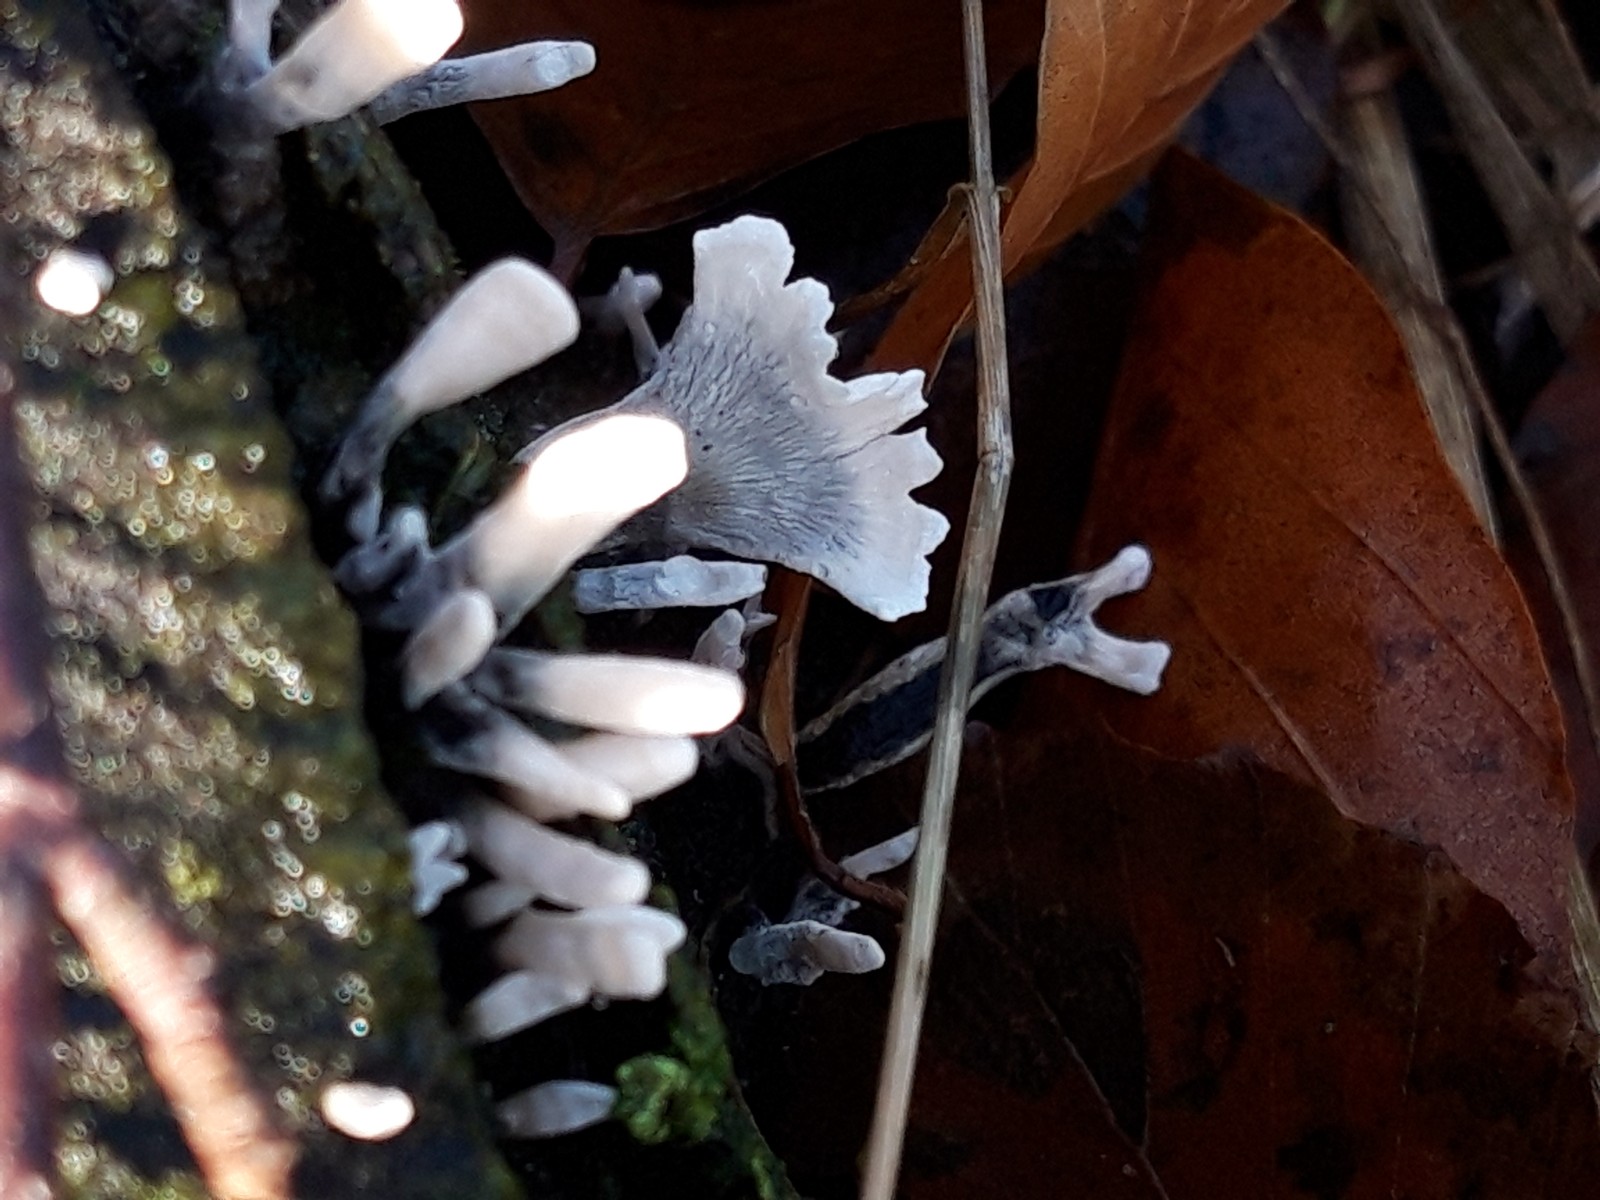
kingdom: Fungi
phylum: Ascomycota
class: Sordariomycetes
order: Xylariales
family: Xylariaceae
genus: Xylaria
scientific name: Xylaria hypoxylon
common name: grenet stødsvamp
